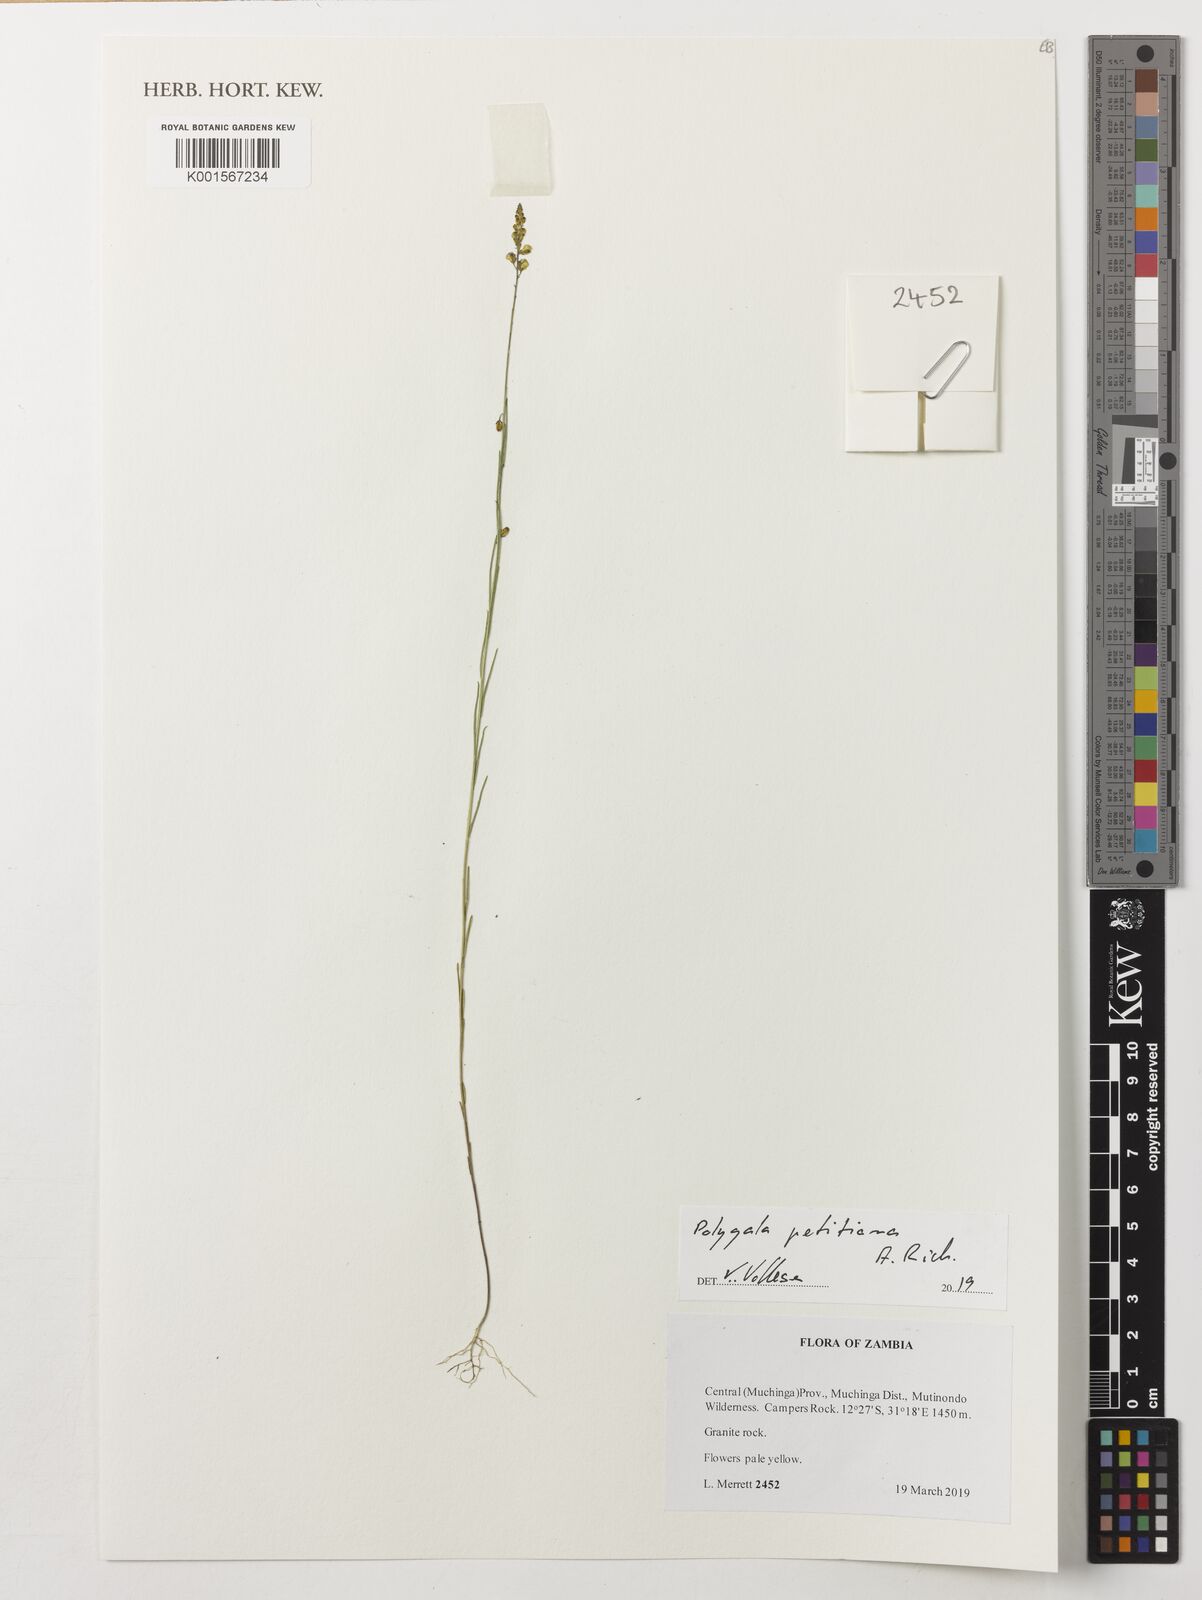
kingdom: Plantae
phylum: Tracheophyta
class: Magnoliopsida
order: Fabales
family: Polygalaceae
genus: Polygala
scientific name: Polygala petitiana
